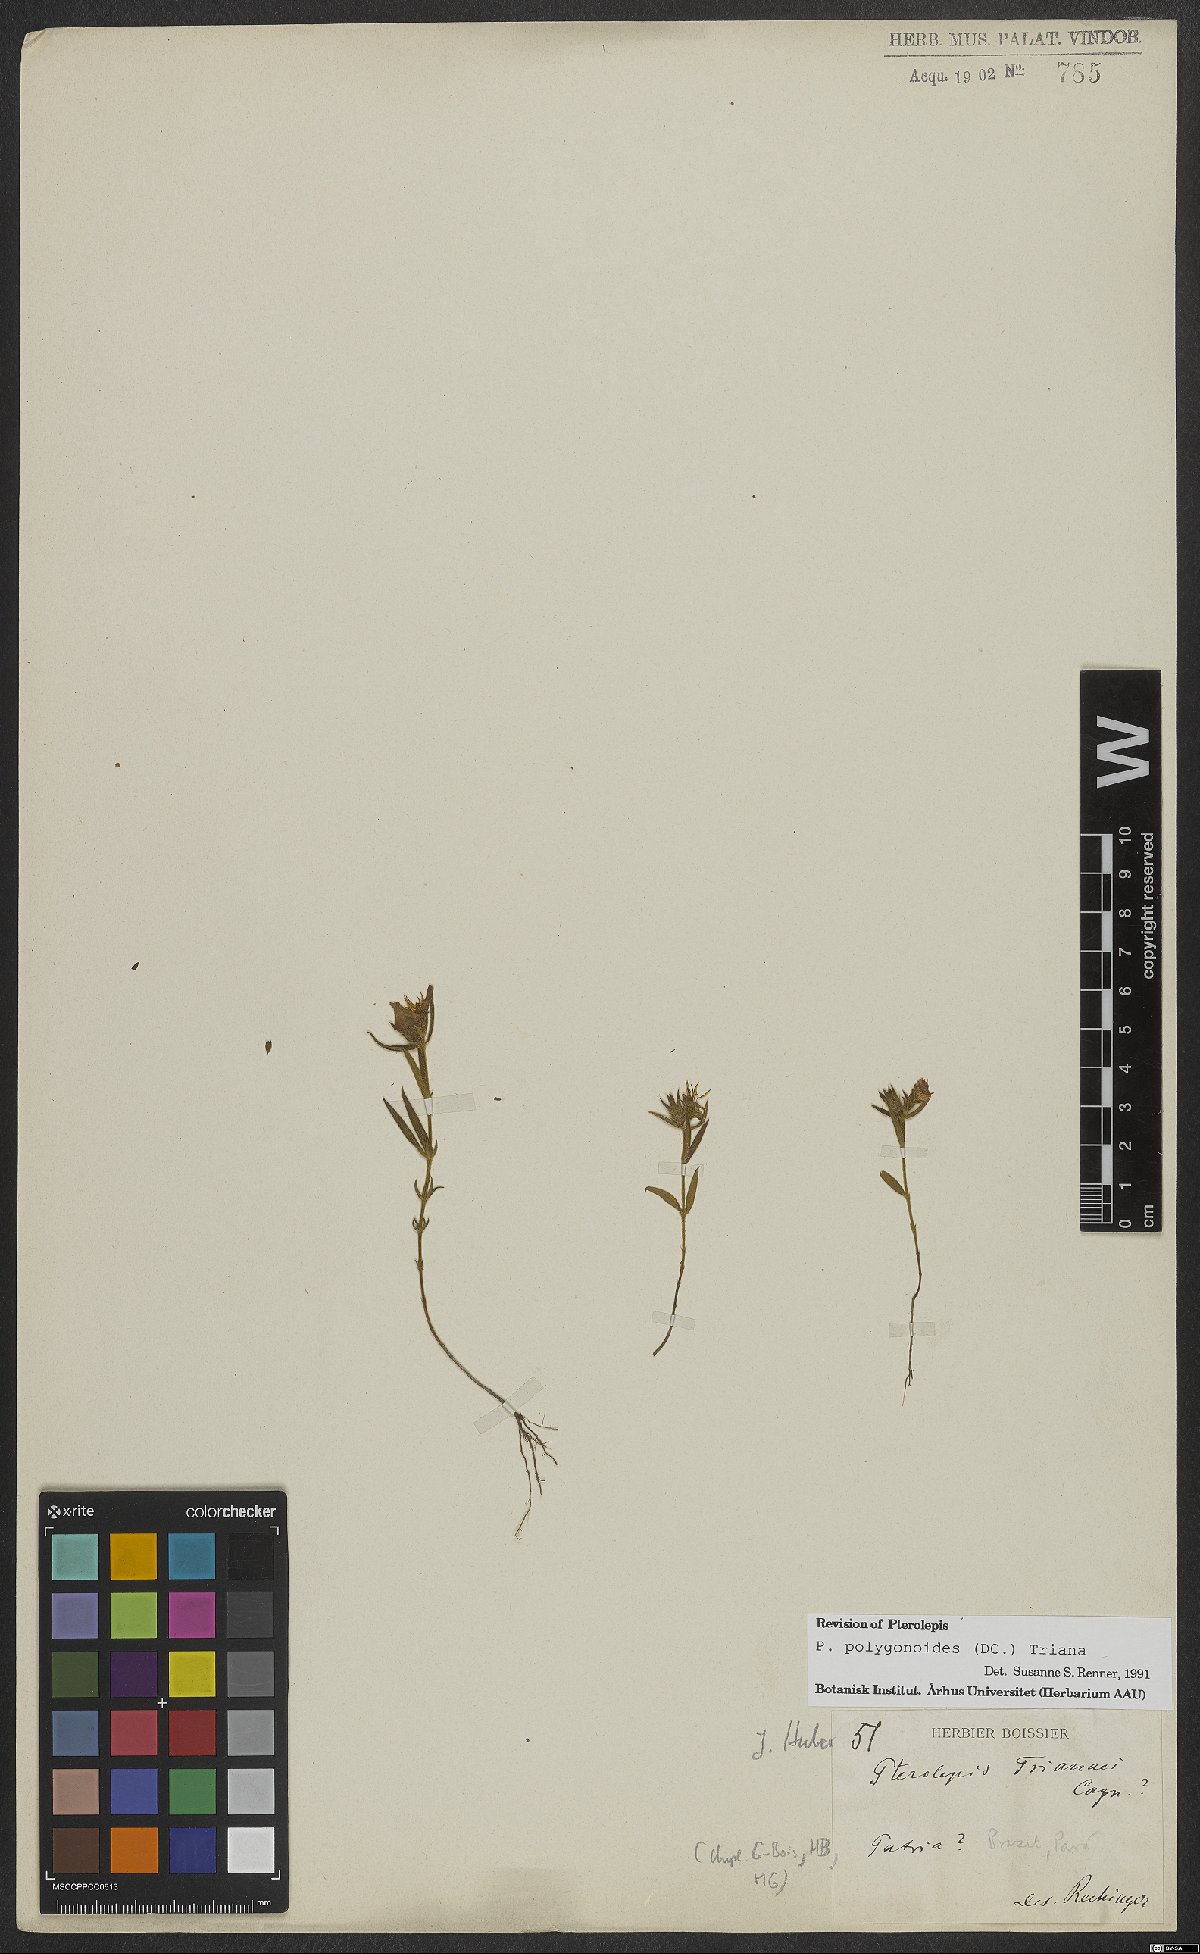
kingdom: Plantae
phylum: Tracheophyta
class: Magnoliopsida
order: Myrtales
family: Melastomataceae
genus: Pterolepis
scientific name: Pterolepis polygonoides
